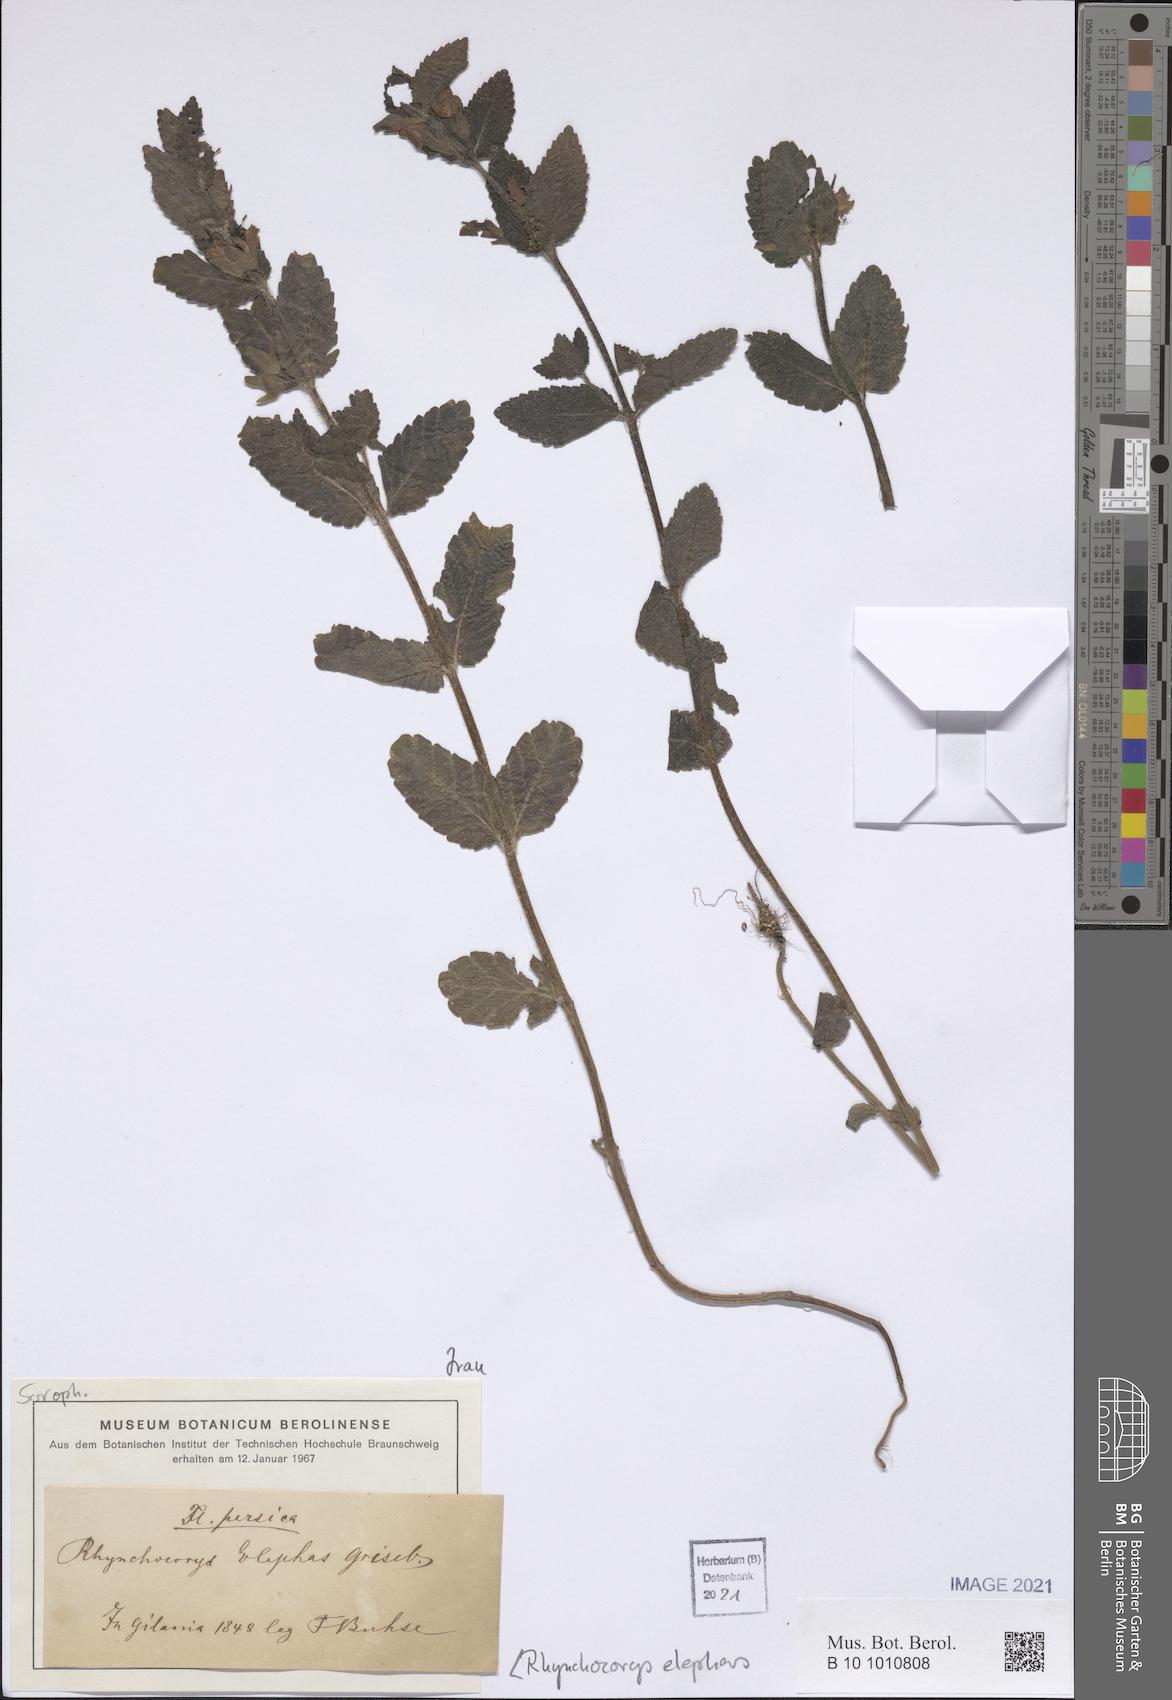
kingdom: Plantae
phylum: Tracheophyta
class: Magnoliopsida
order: Lamiales
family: Orobanchaceae
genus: Rhynchocorys
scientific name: Rhynchocorys elephas
